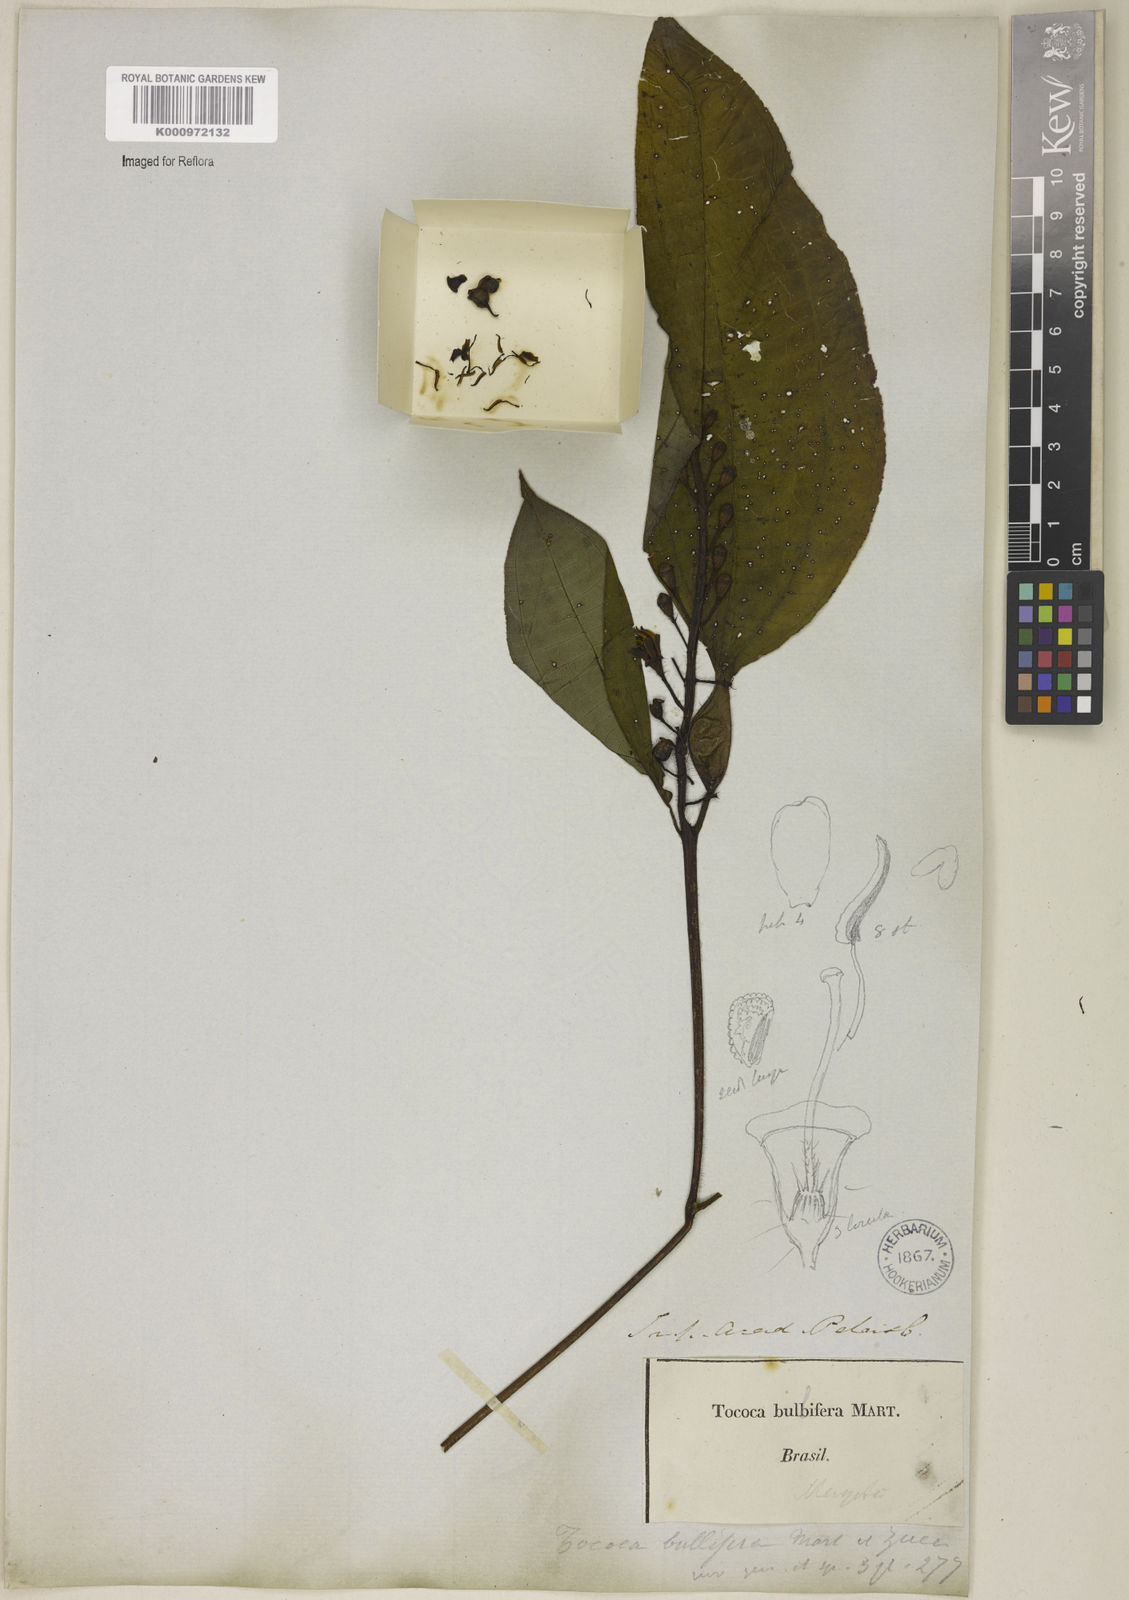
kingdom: Plantae
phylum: Tracheophyta
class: Magnoliopsida
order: Myrtales
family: Melastomataceae
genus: Miconia
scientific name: Miconia bullifera
